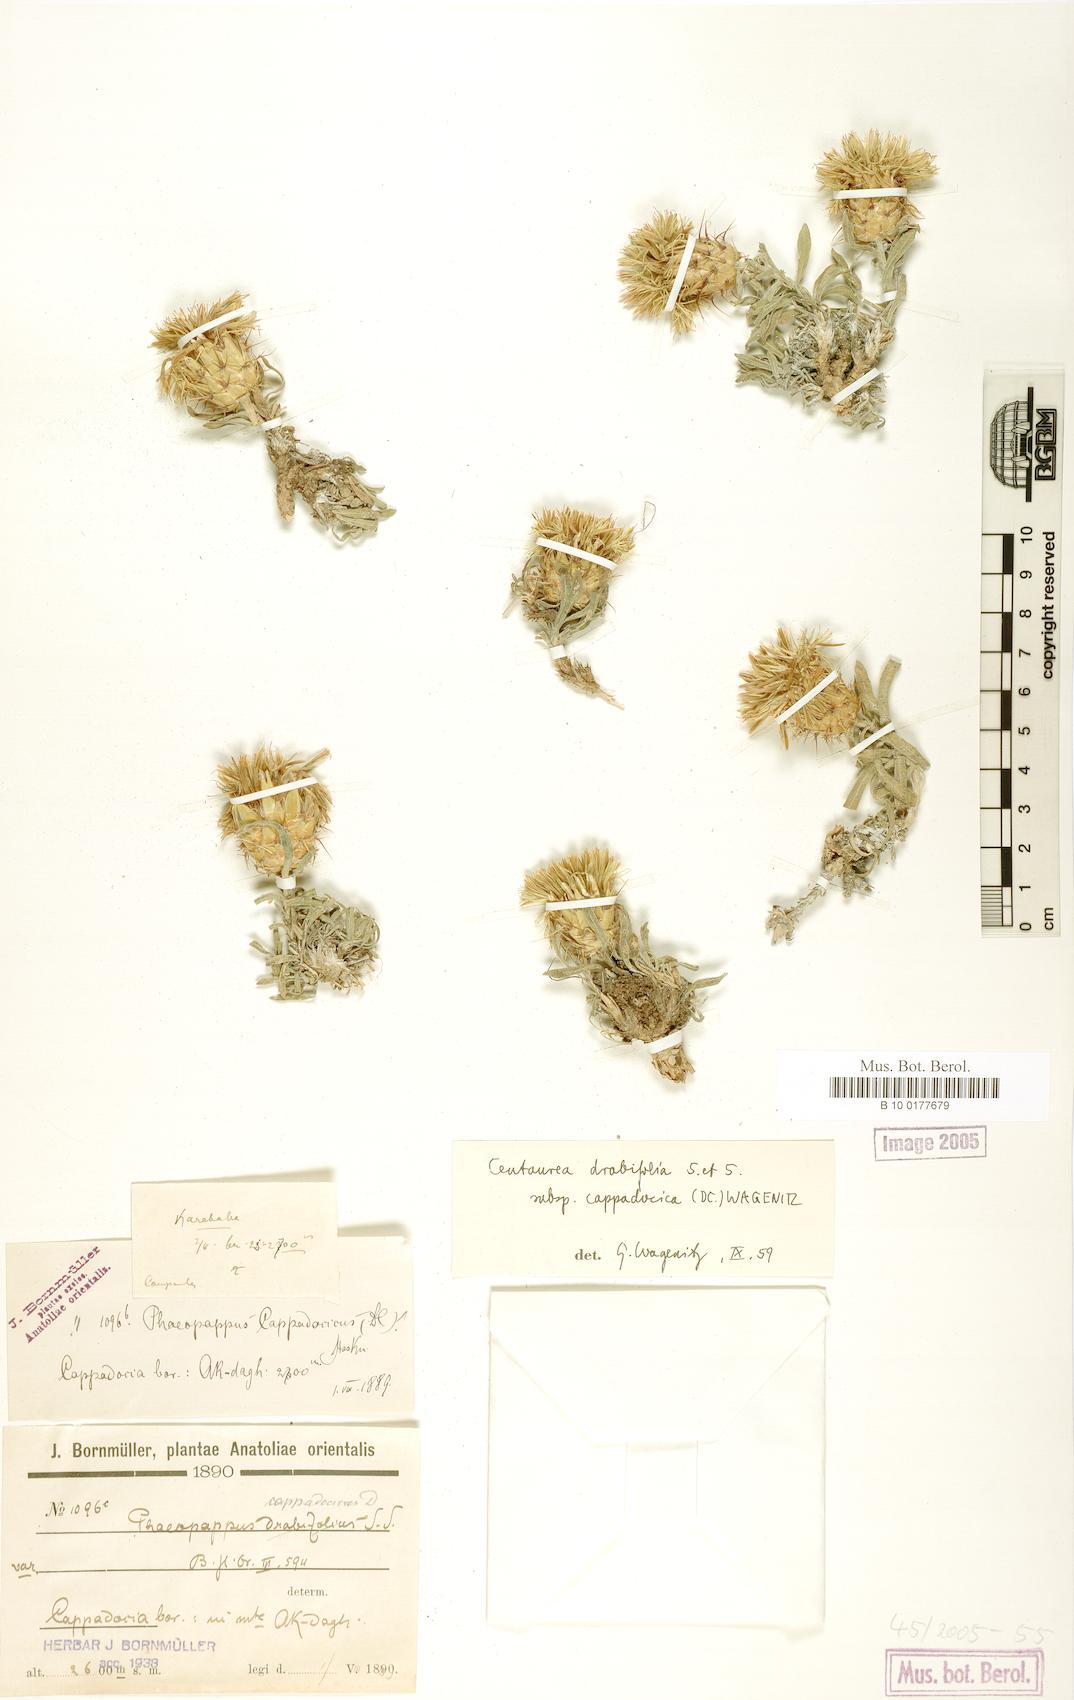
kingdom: Plantae
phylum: Tracheophyta
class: Magnoliopsida
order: Asterales
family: Asteraceae
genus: Centaurea
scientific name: Centaurea drabifolia
